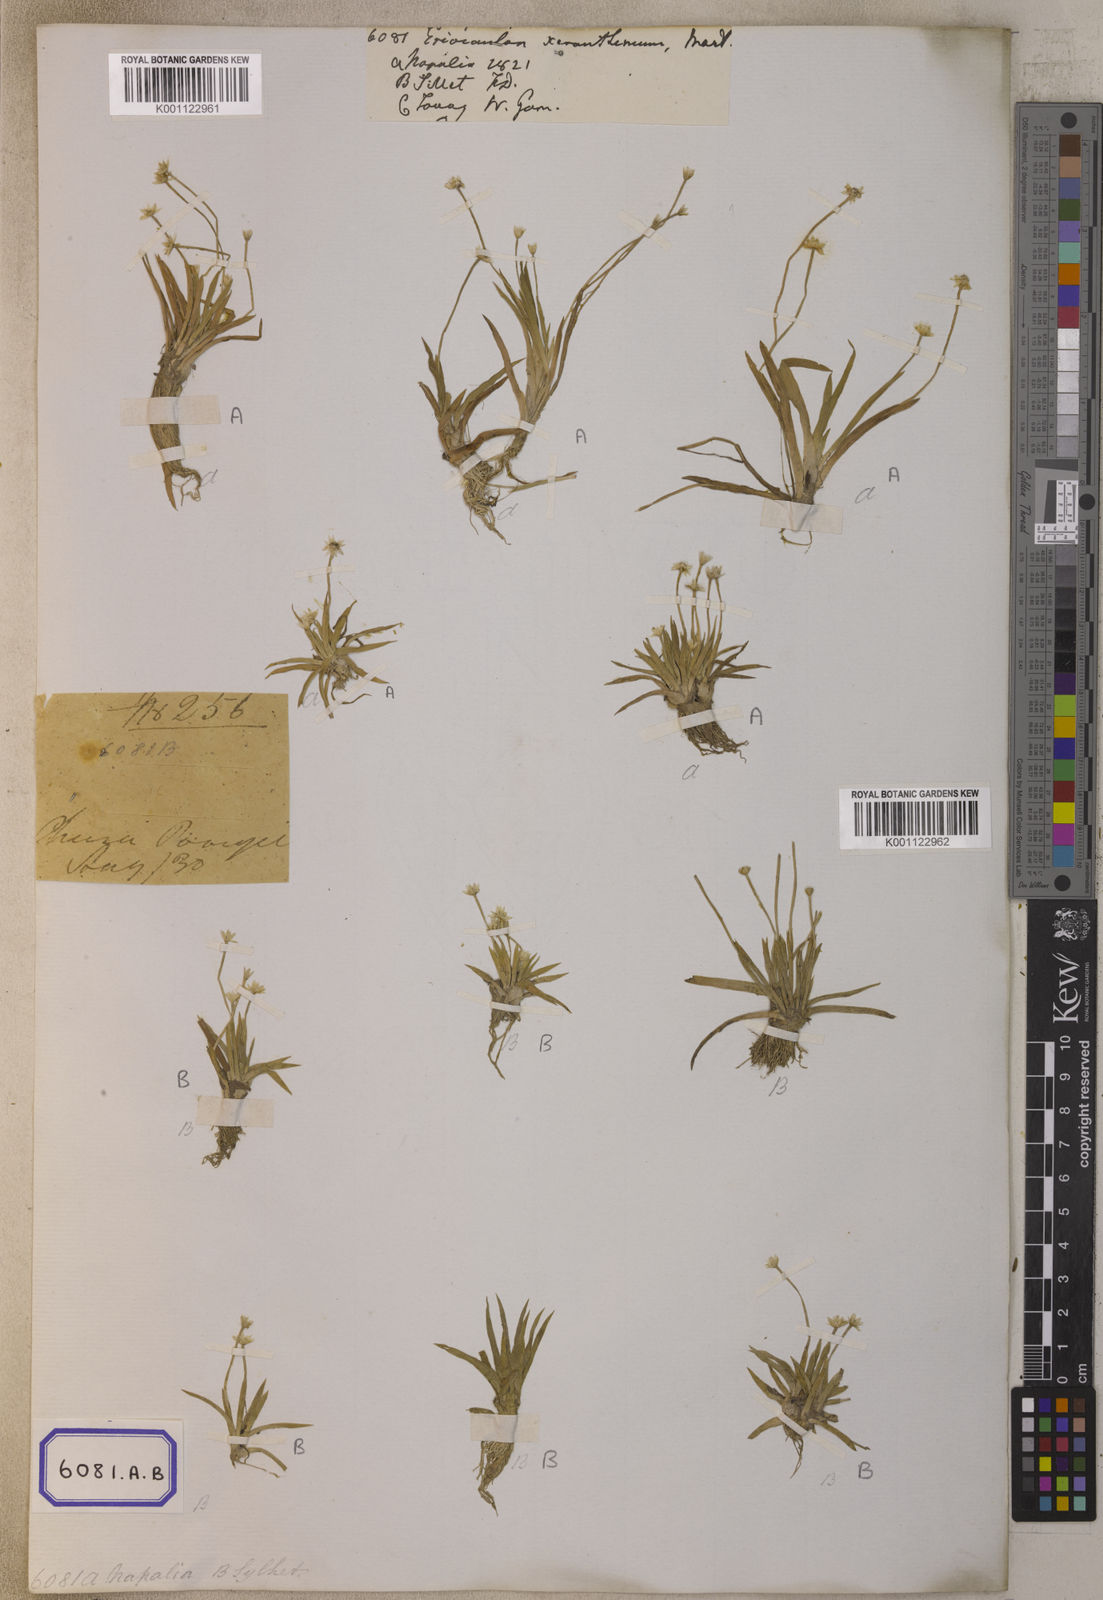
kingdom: Plantae
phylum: Tracheophyta
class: Liliopsida
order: Poales
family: Eriocaulaceae
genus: Eriocaulon
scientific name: Eriocaulon xeranthemum
